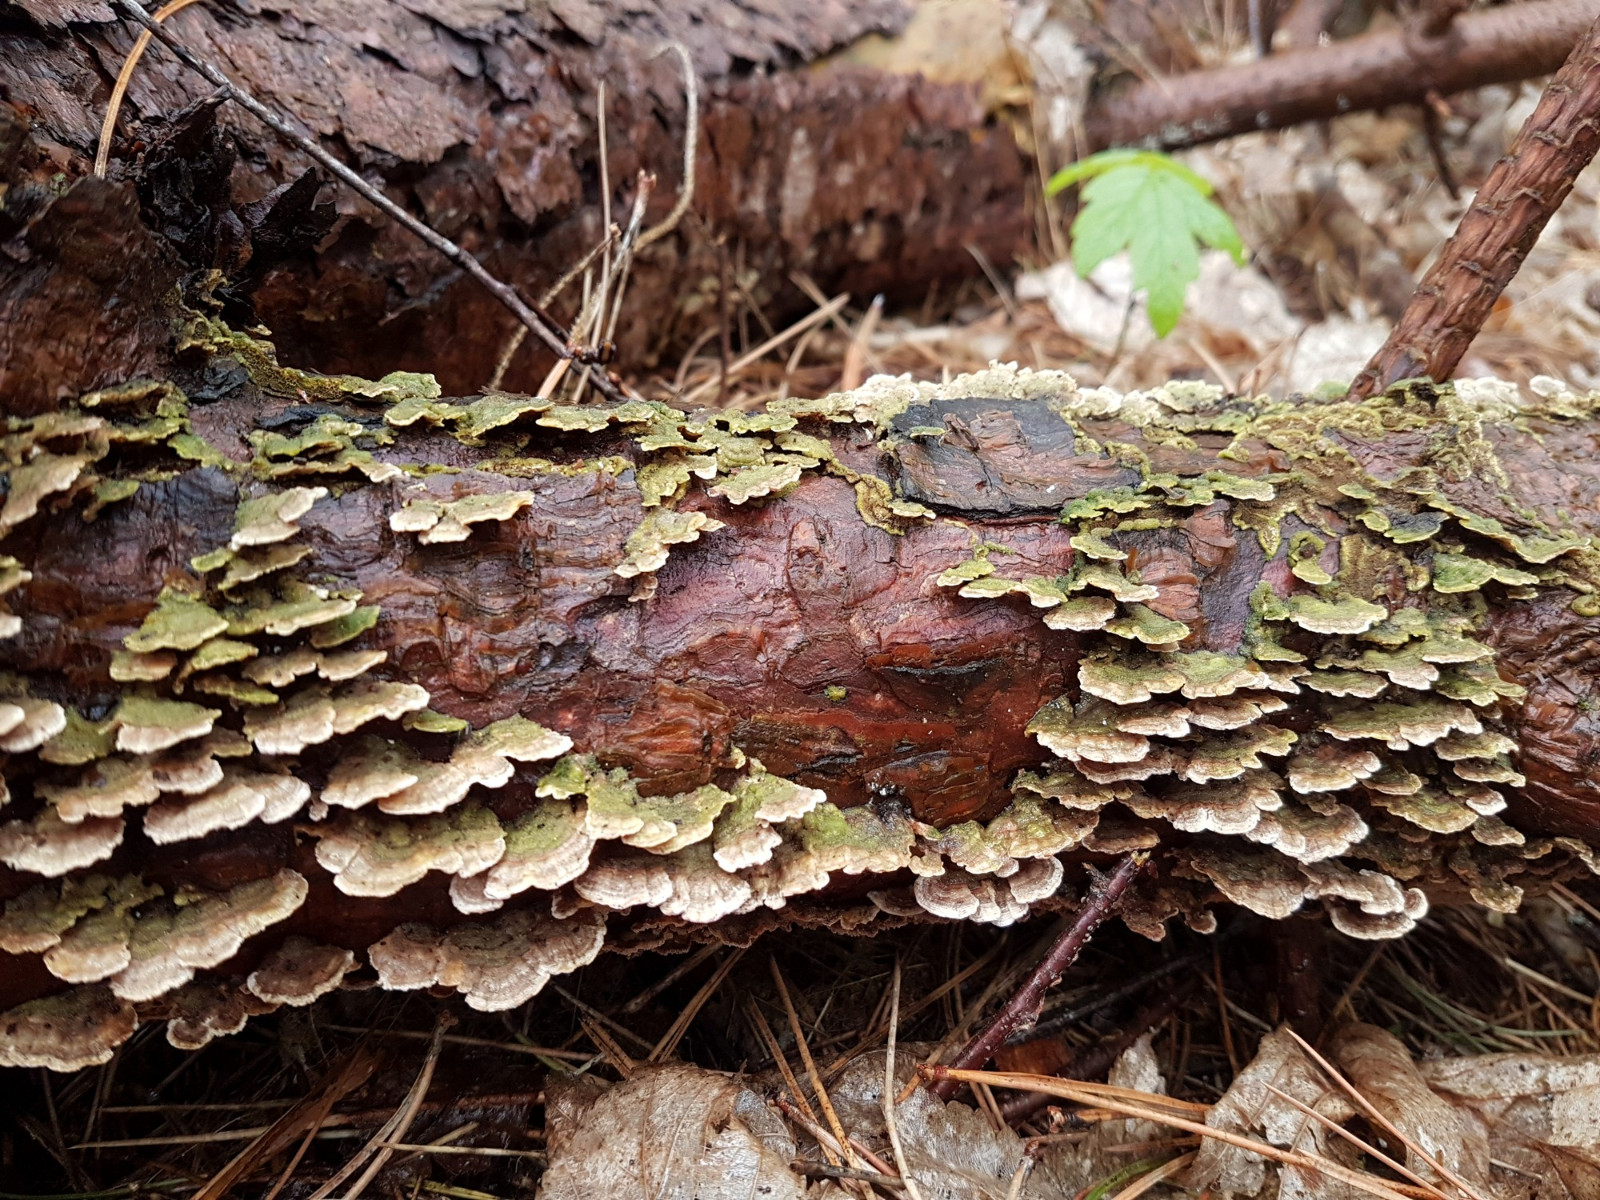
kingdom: Fungi
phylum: Basidiomycota
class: Agaricomycetes
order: Hymenochaetales
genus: Trichaptum
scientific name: Trichaptum abietinum
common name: almindelig violporesvamp
